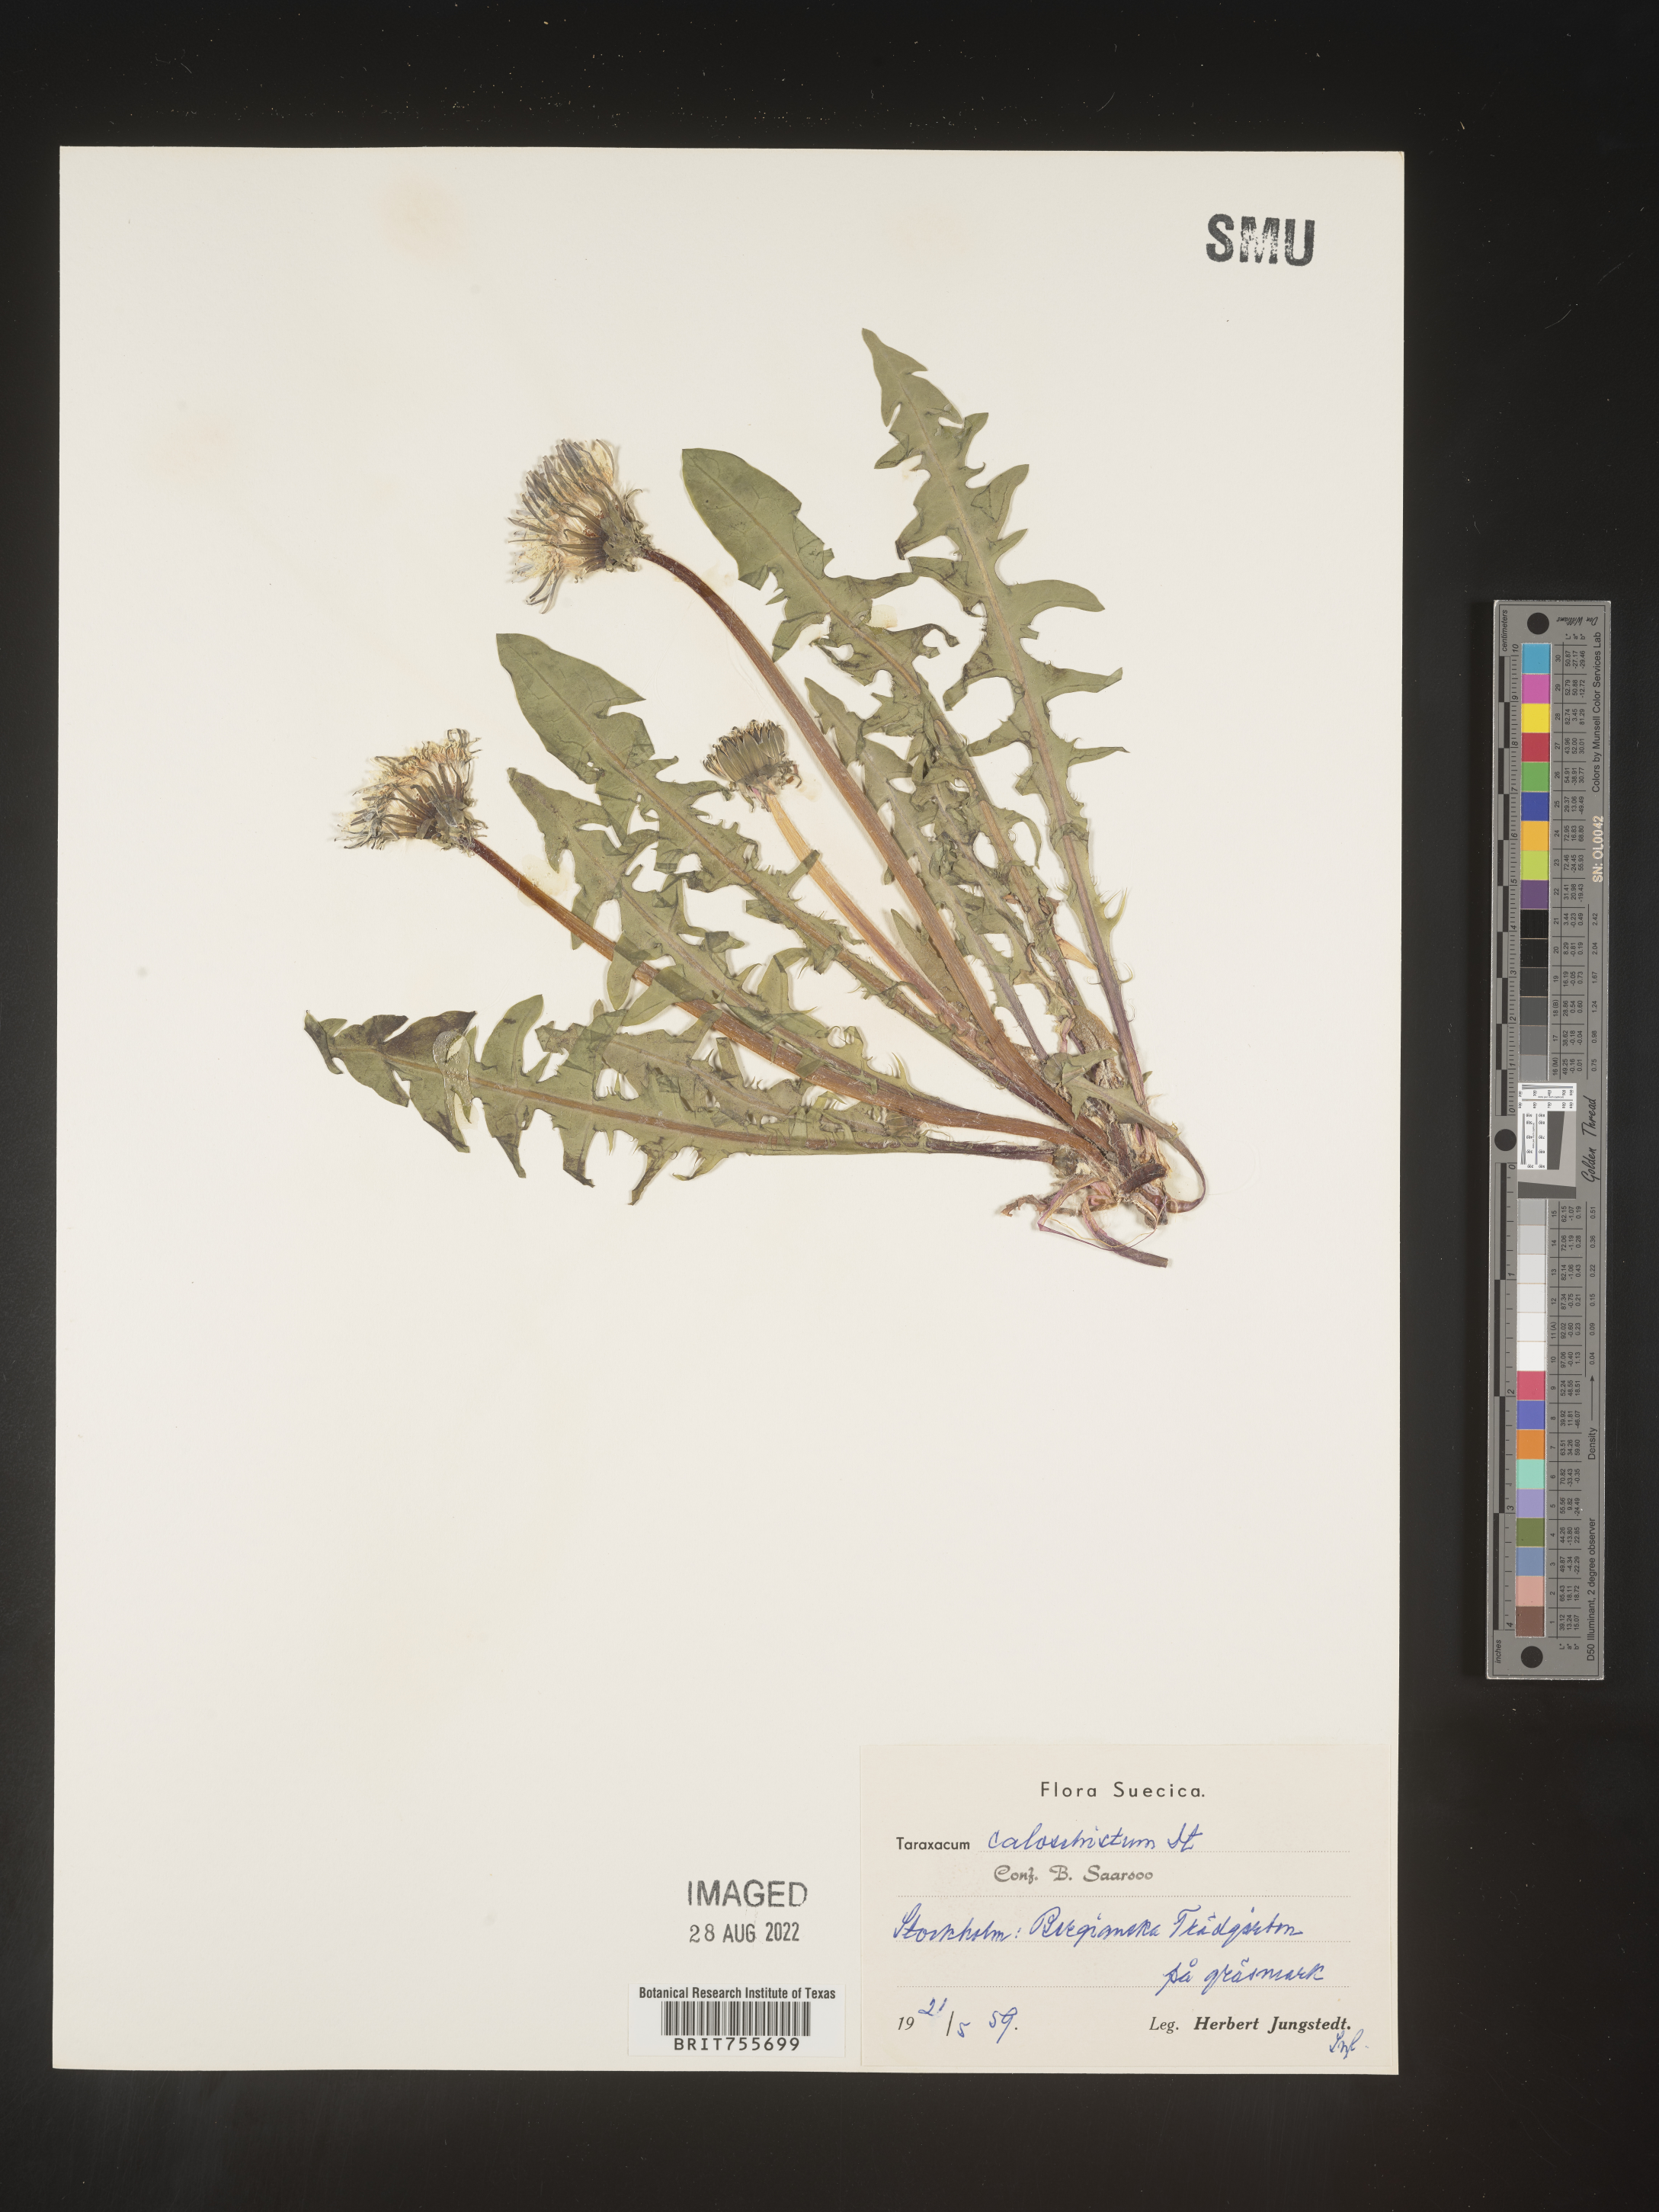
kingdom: Plantae
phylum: Tracheophyta
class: Magnoliopsida
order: Asterales
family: Asteraceae
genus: Taraxacum
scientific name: Taraxacum
